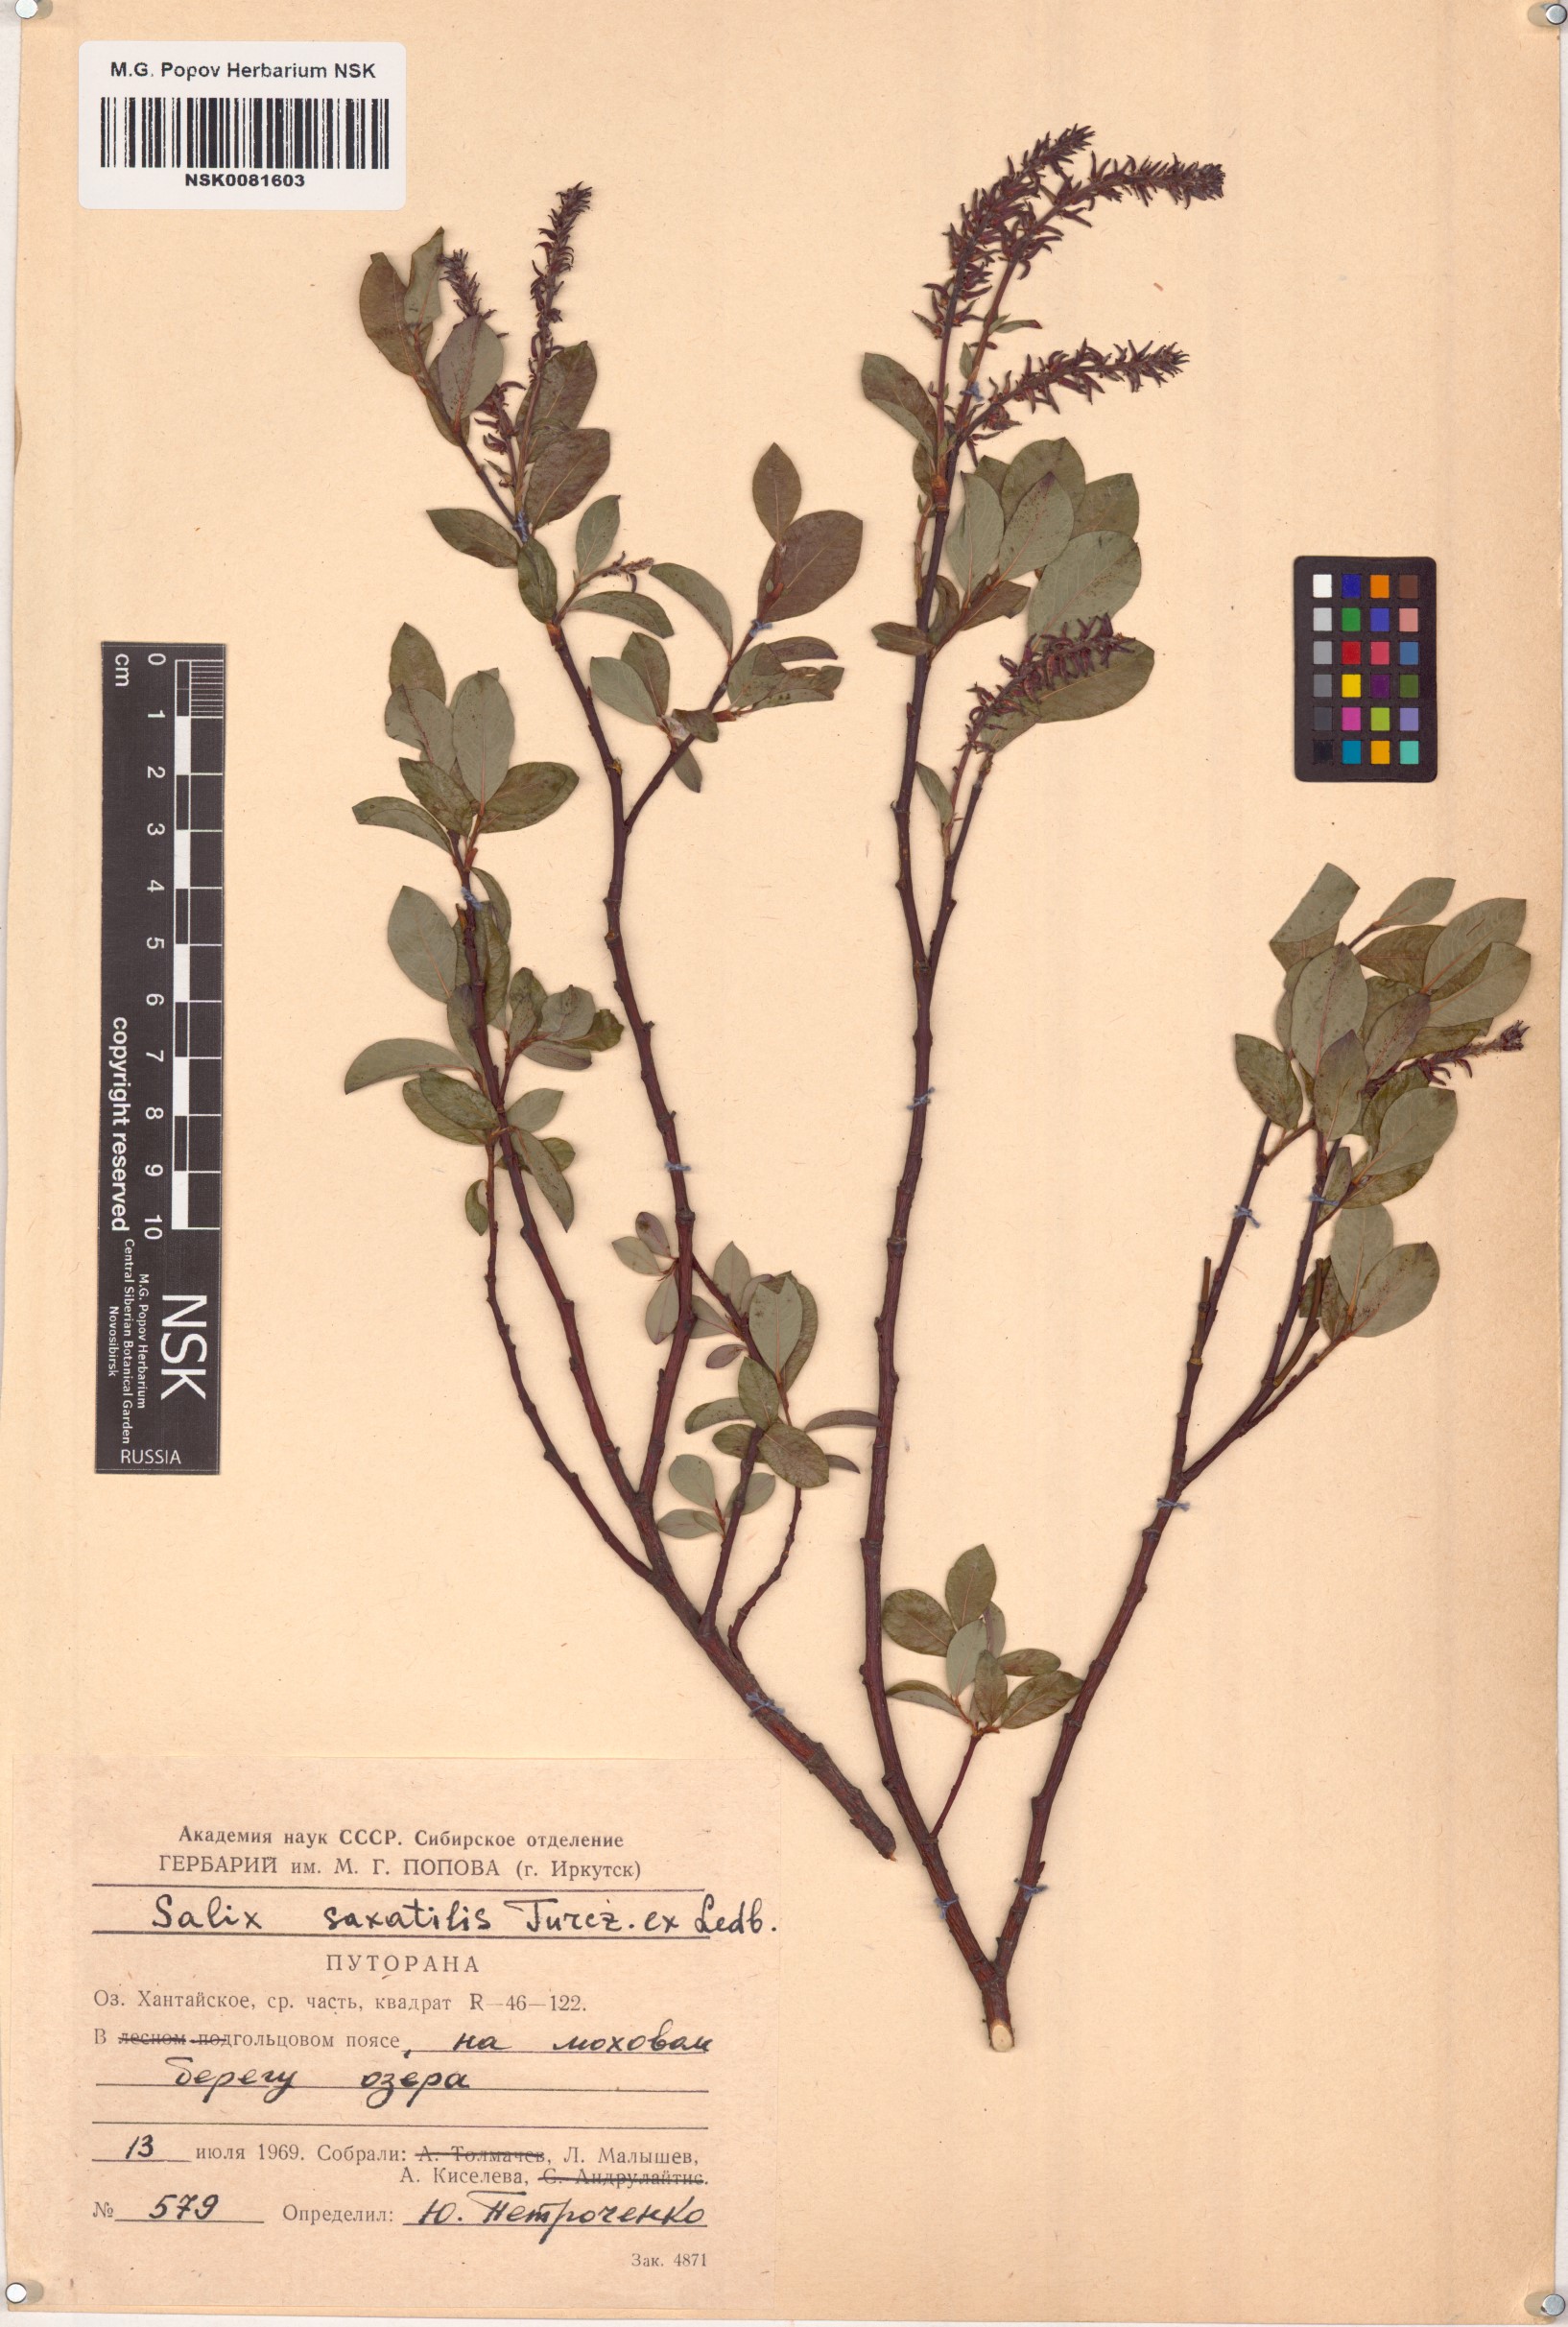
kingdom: Plantae
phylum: Tracheophyta
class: Magnoliopsida
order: Malpighiales
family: Salicaceae
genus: Salix
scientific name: Salix saxatilis
